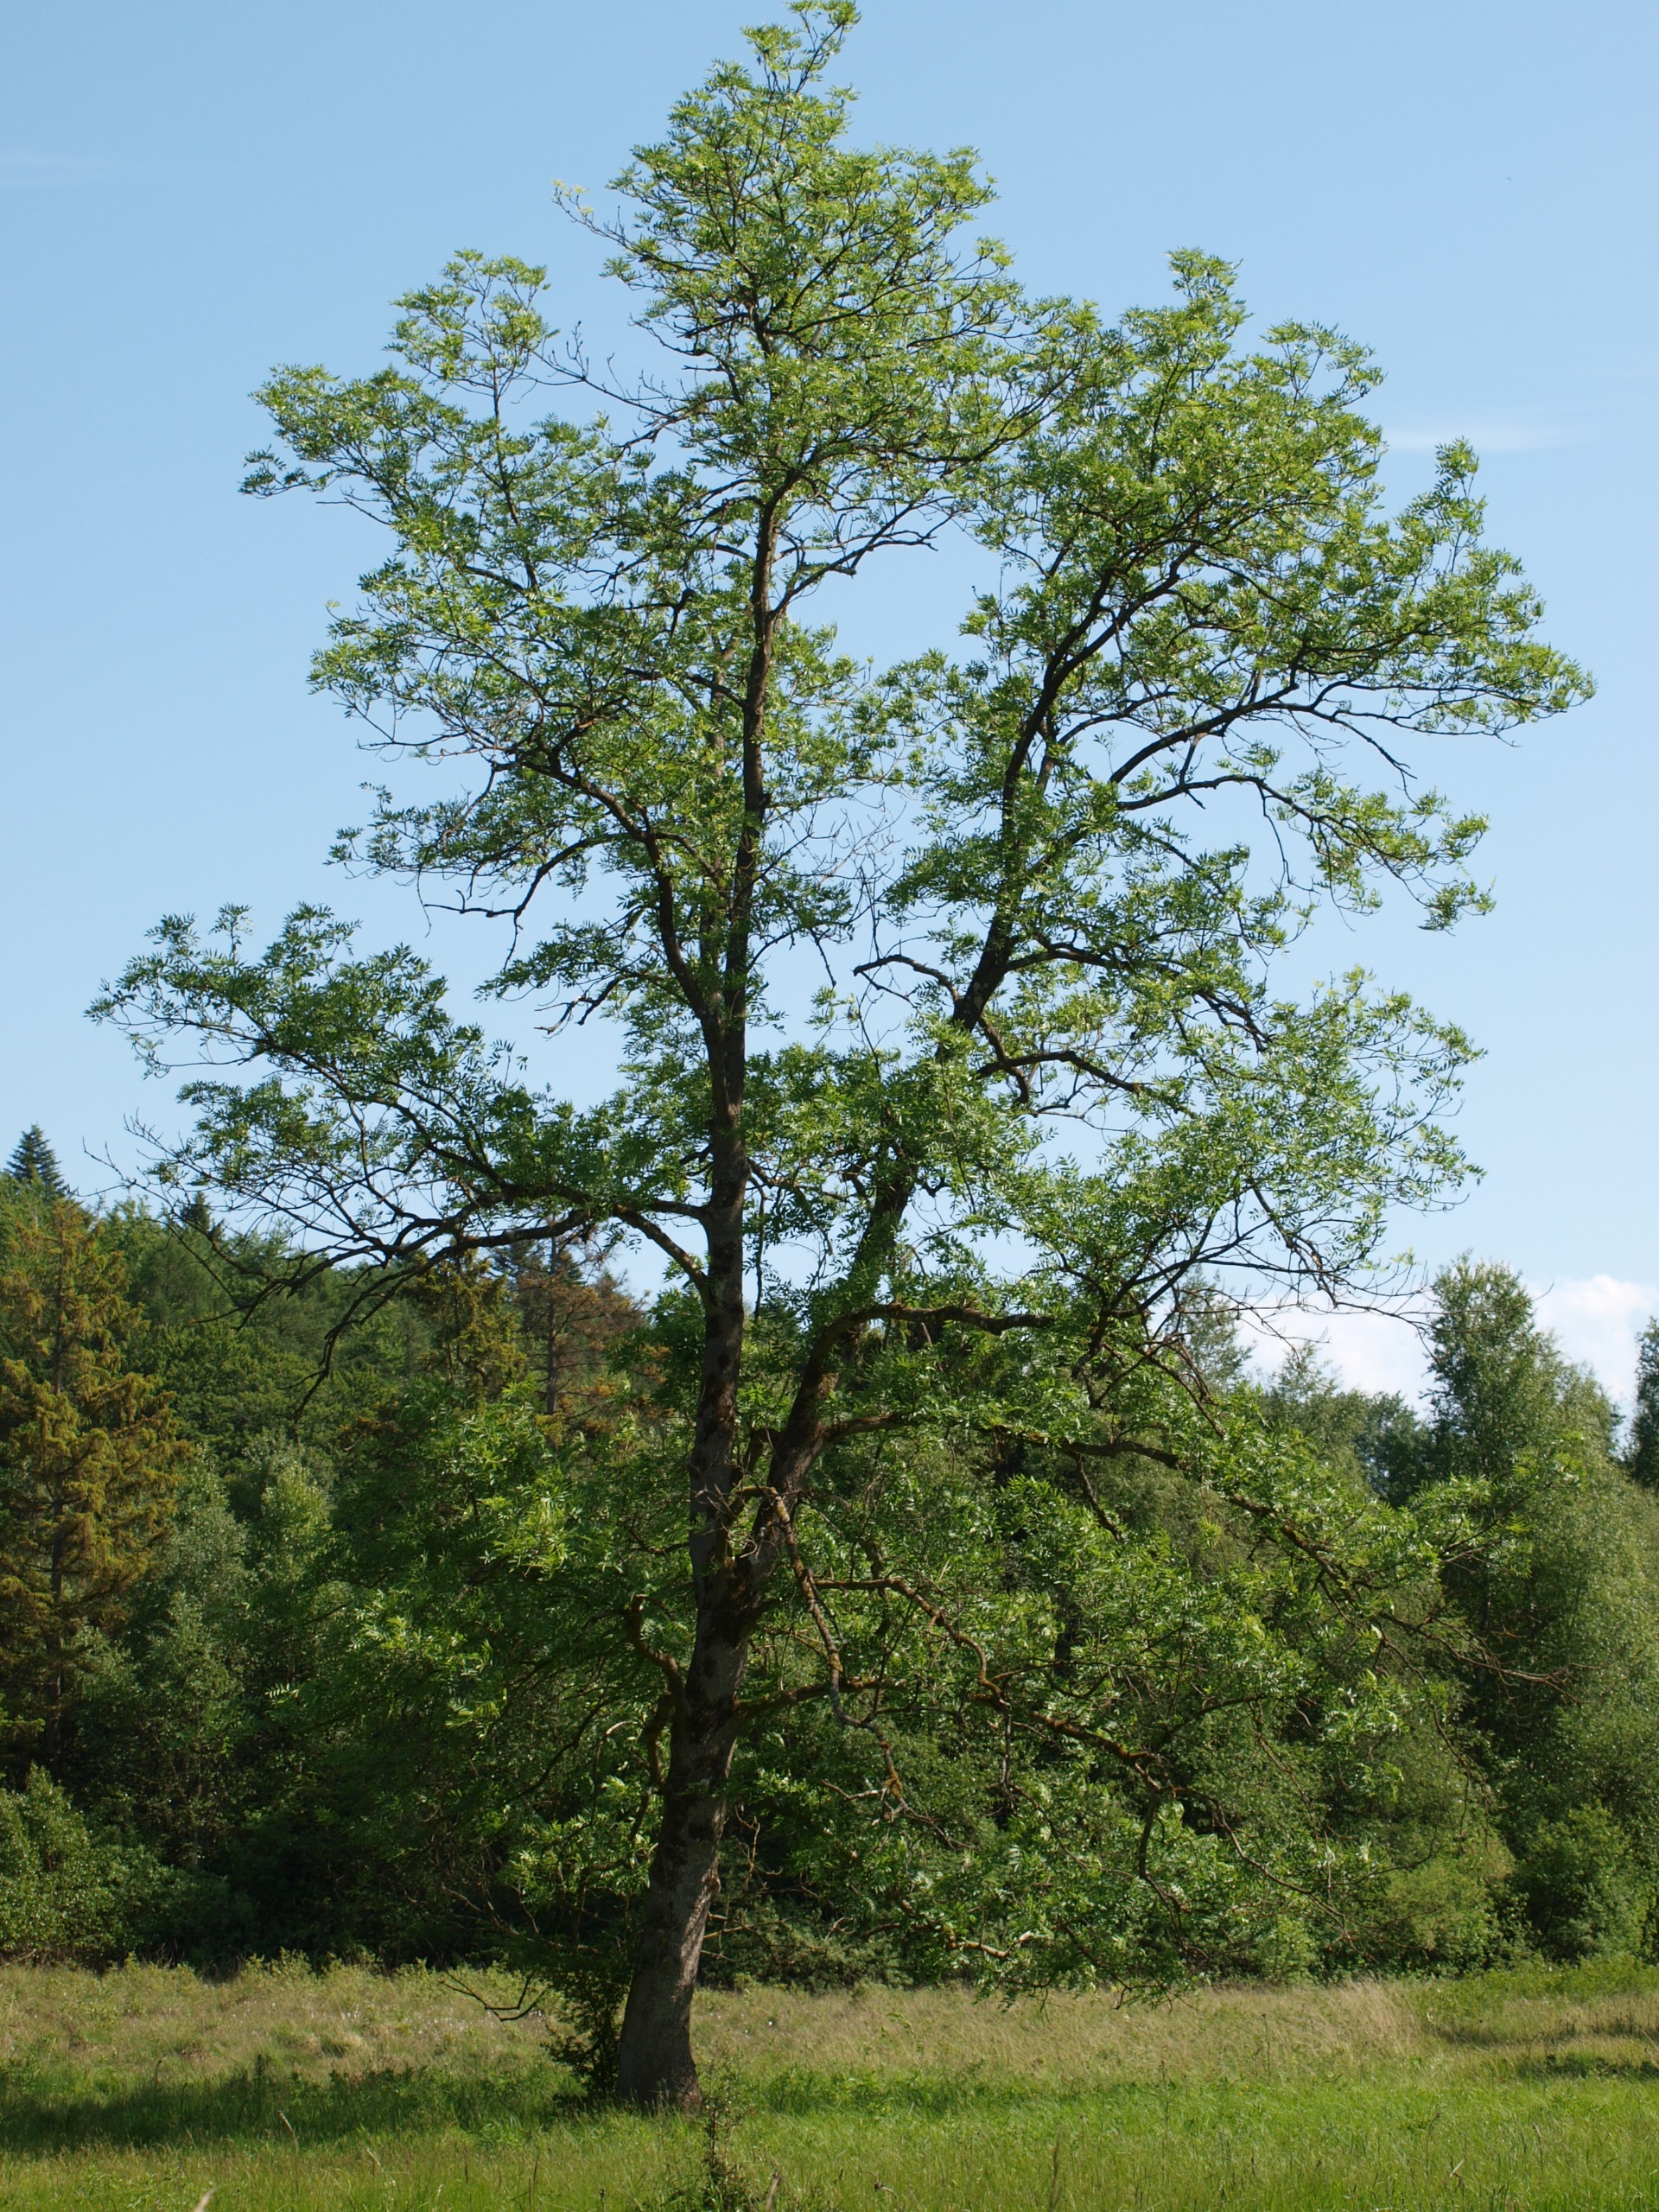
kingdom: Plantae
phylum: Tracheophyta
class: Magnoliopsida
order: Lamiales
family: Oleaceae
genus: Fraxinus
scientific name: Fraxinus excelsior
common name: Ask
